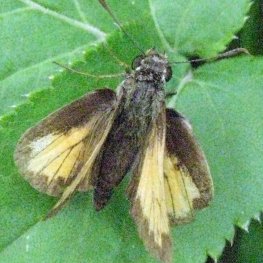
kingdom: Animalia
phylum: Arthropoda
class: Insecta
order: Lepidoptera
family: Hesperiidae
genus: Lon
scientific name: Lon hobomok
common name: Hobomok Skipper
